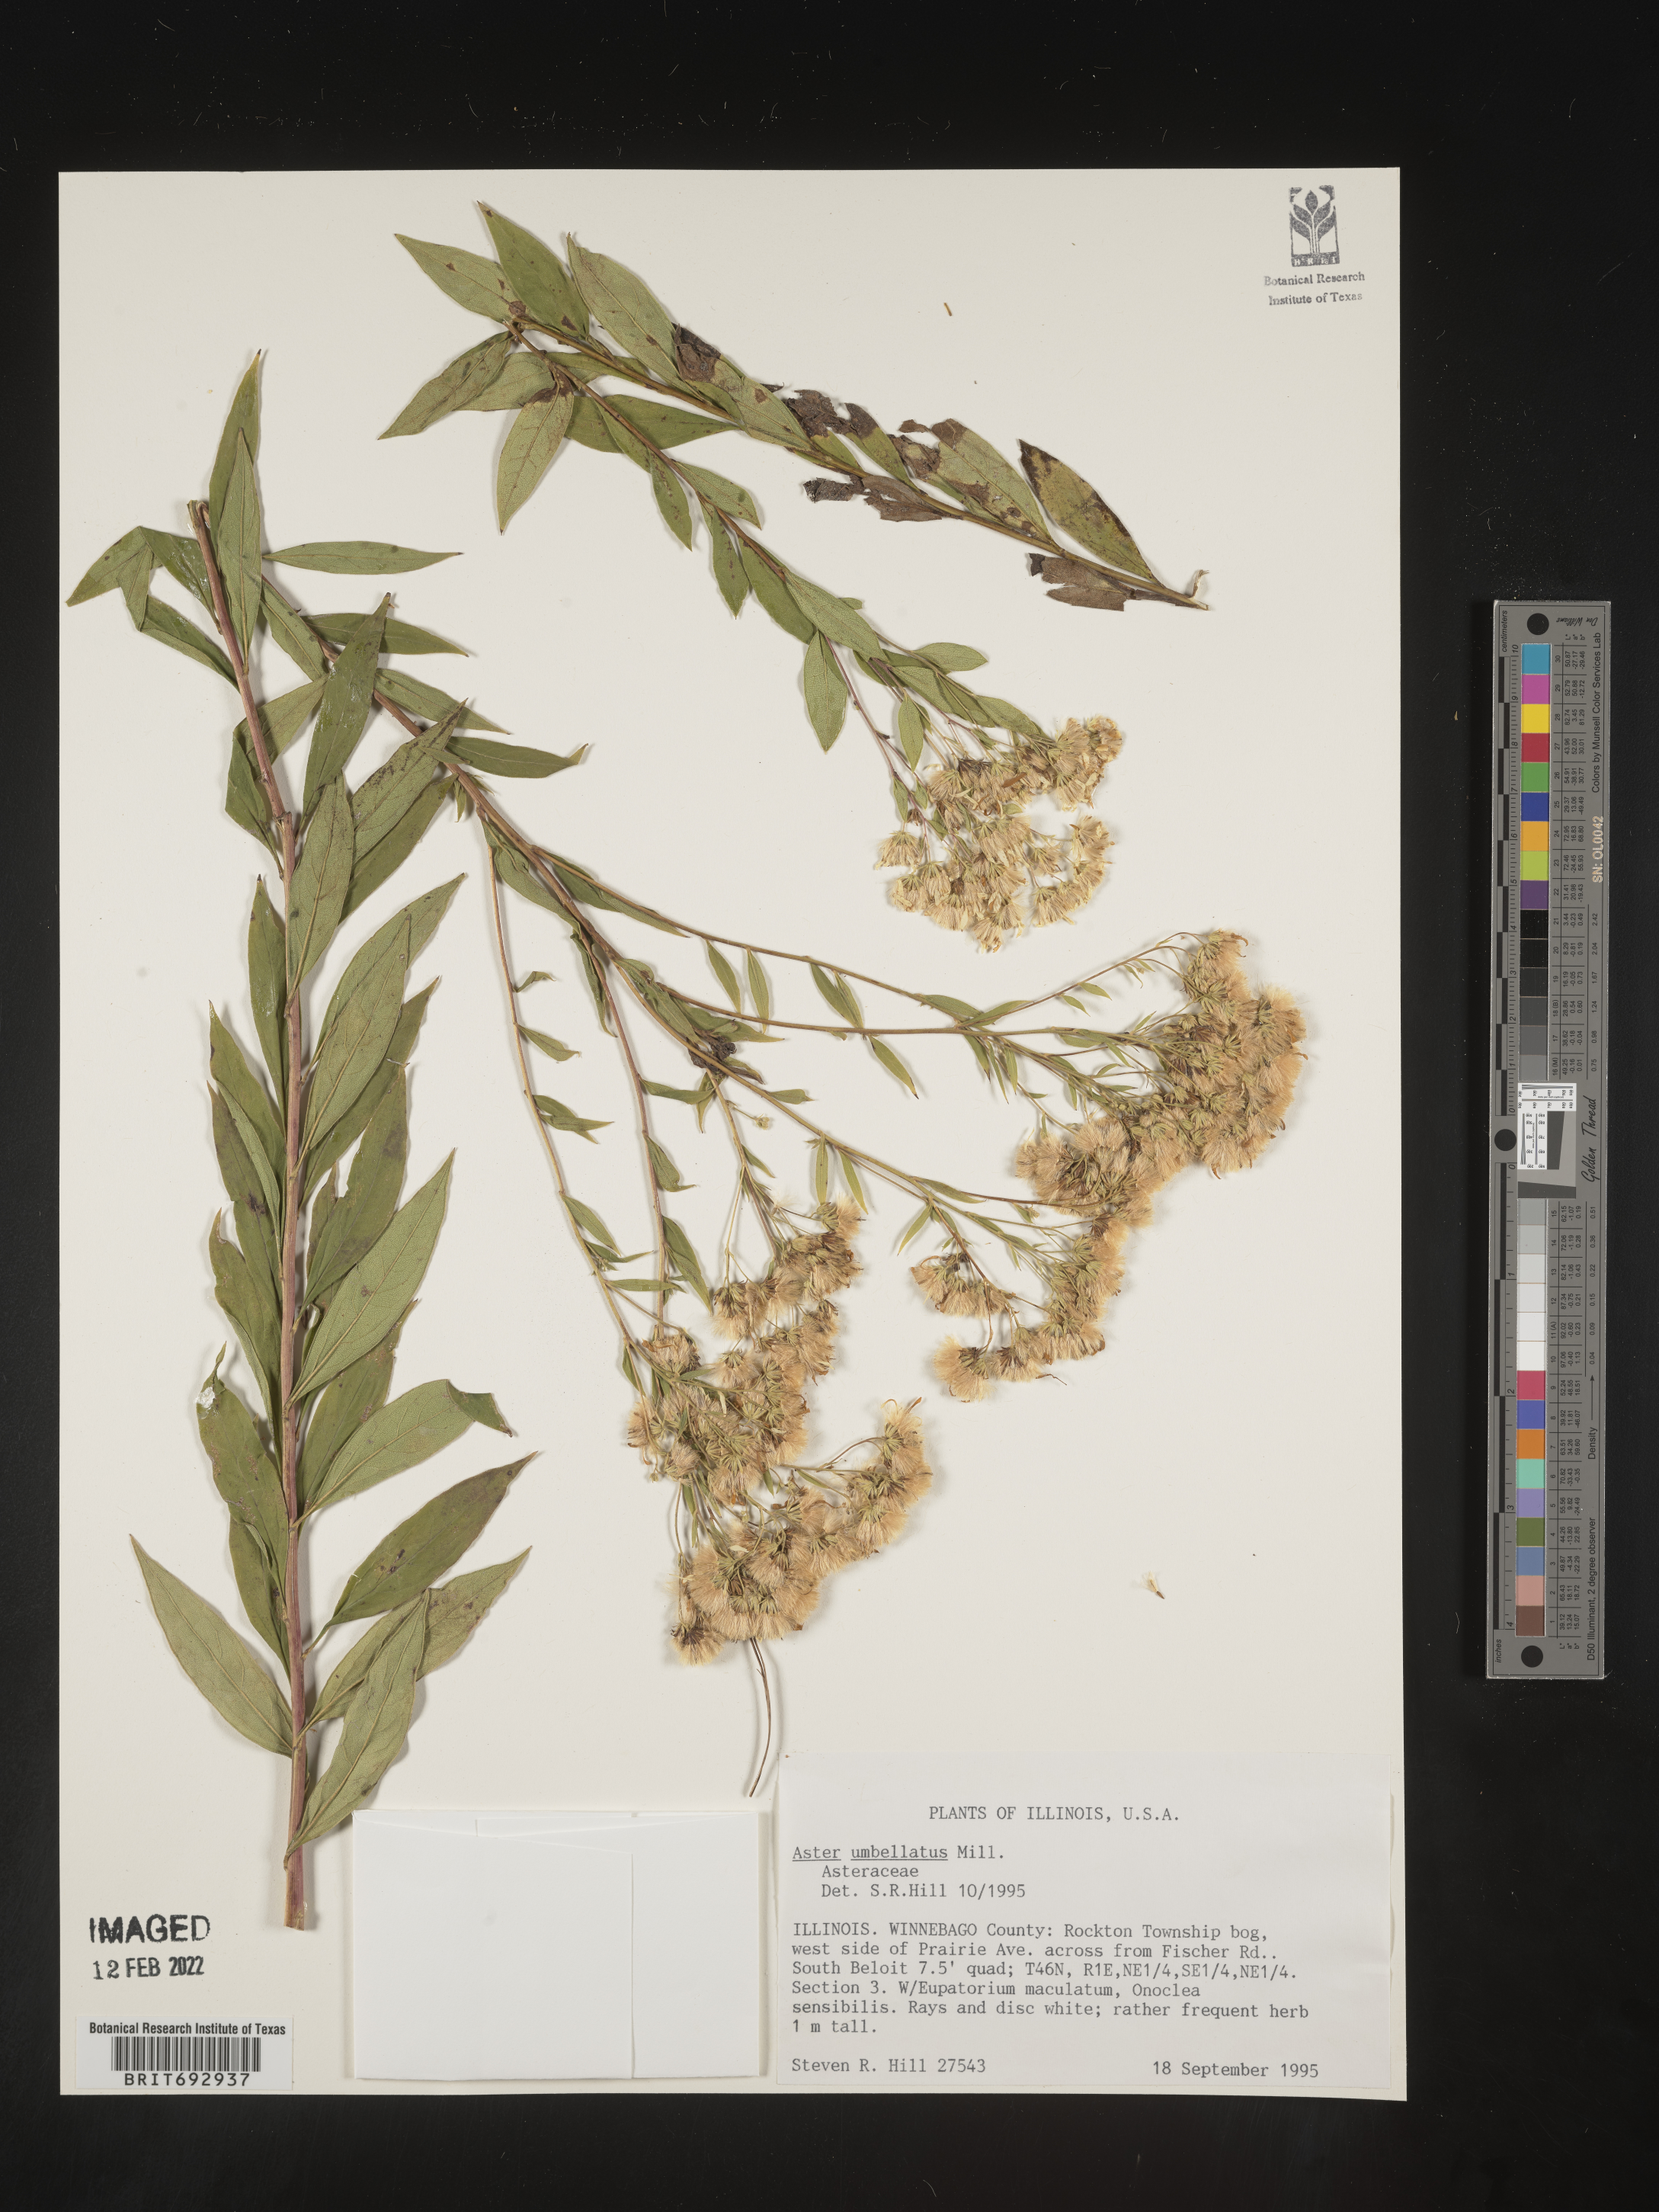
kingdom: Plantae
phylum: Tracheophyta
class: Magnoliopsida
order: Asterales
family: Asteraceae
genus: Doellingeria
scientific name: Doellingeria umbellata
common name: Flat-top white aster
